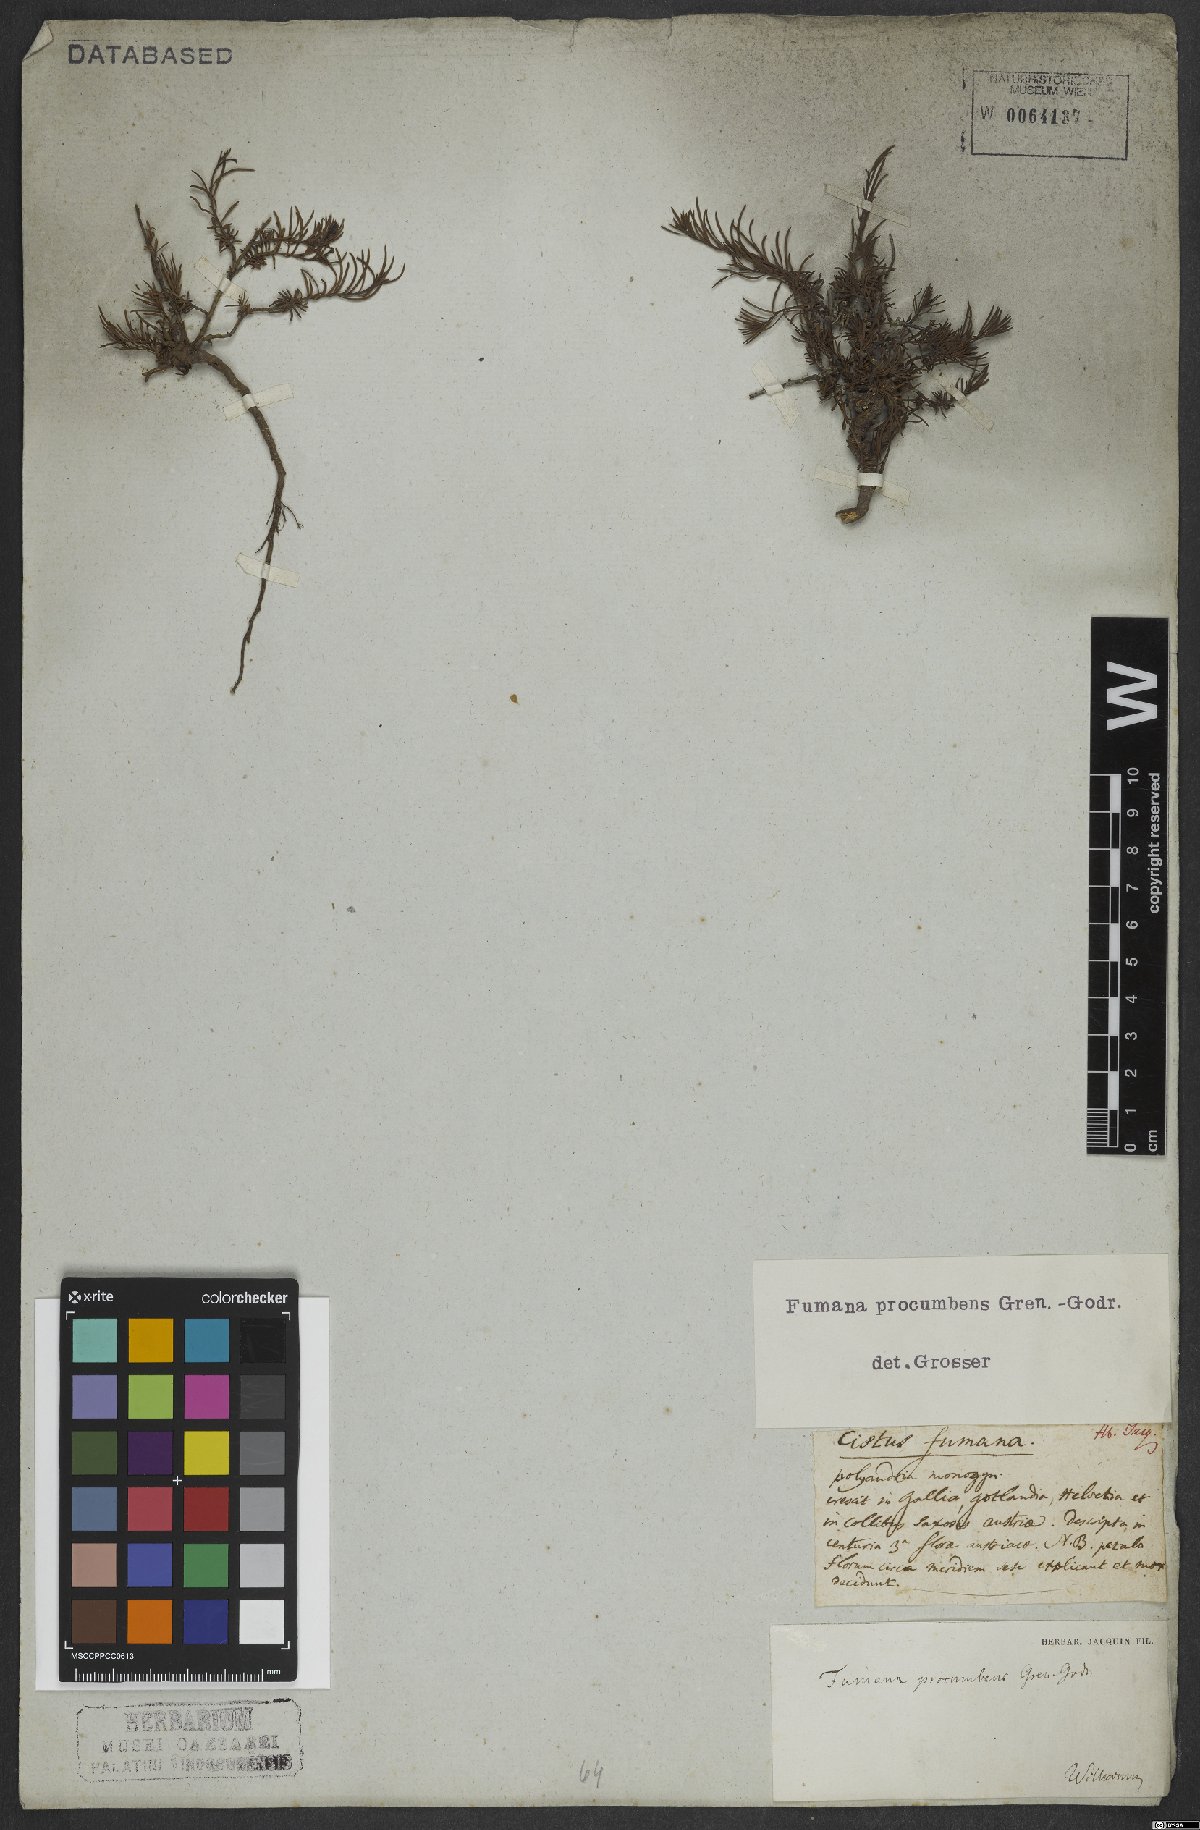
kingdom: Plantae
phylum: Tracheophyta
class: Magnoliopsida
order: Malvales
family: Cistaceae
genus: Fumana
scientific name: Fumana procumbens
